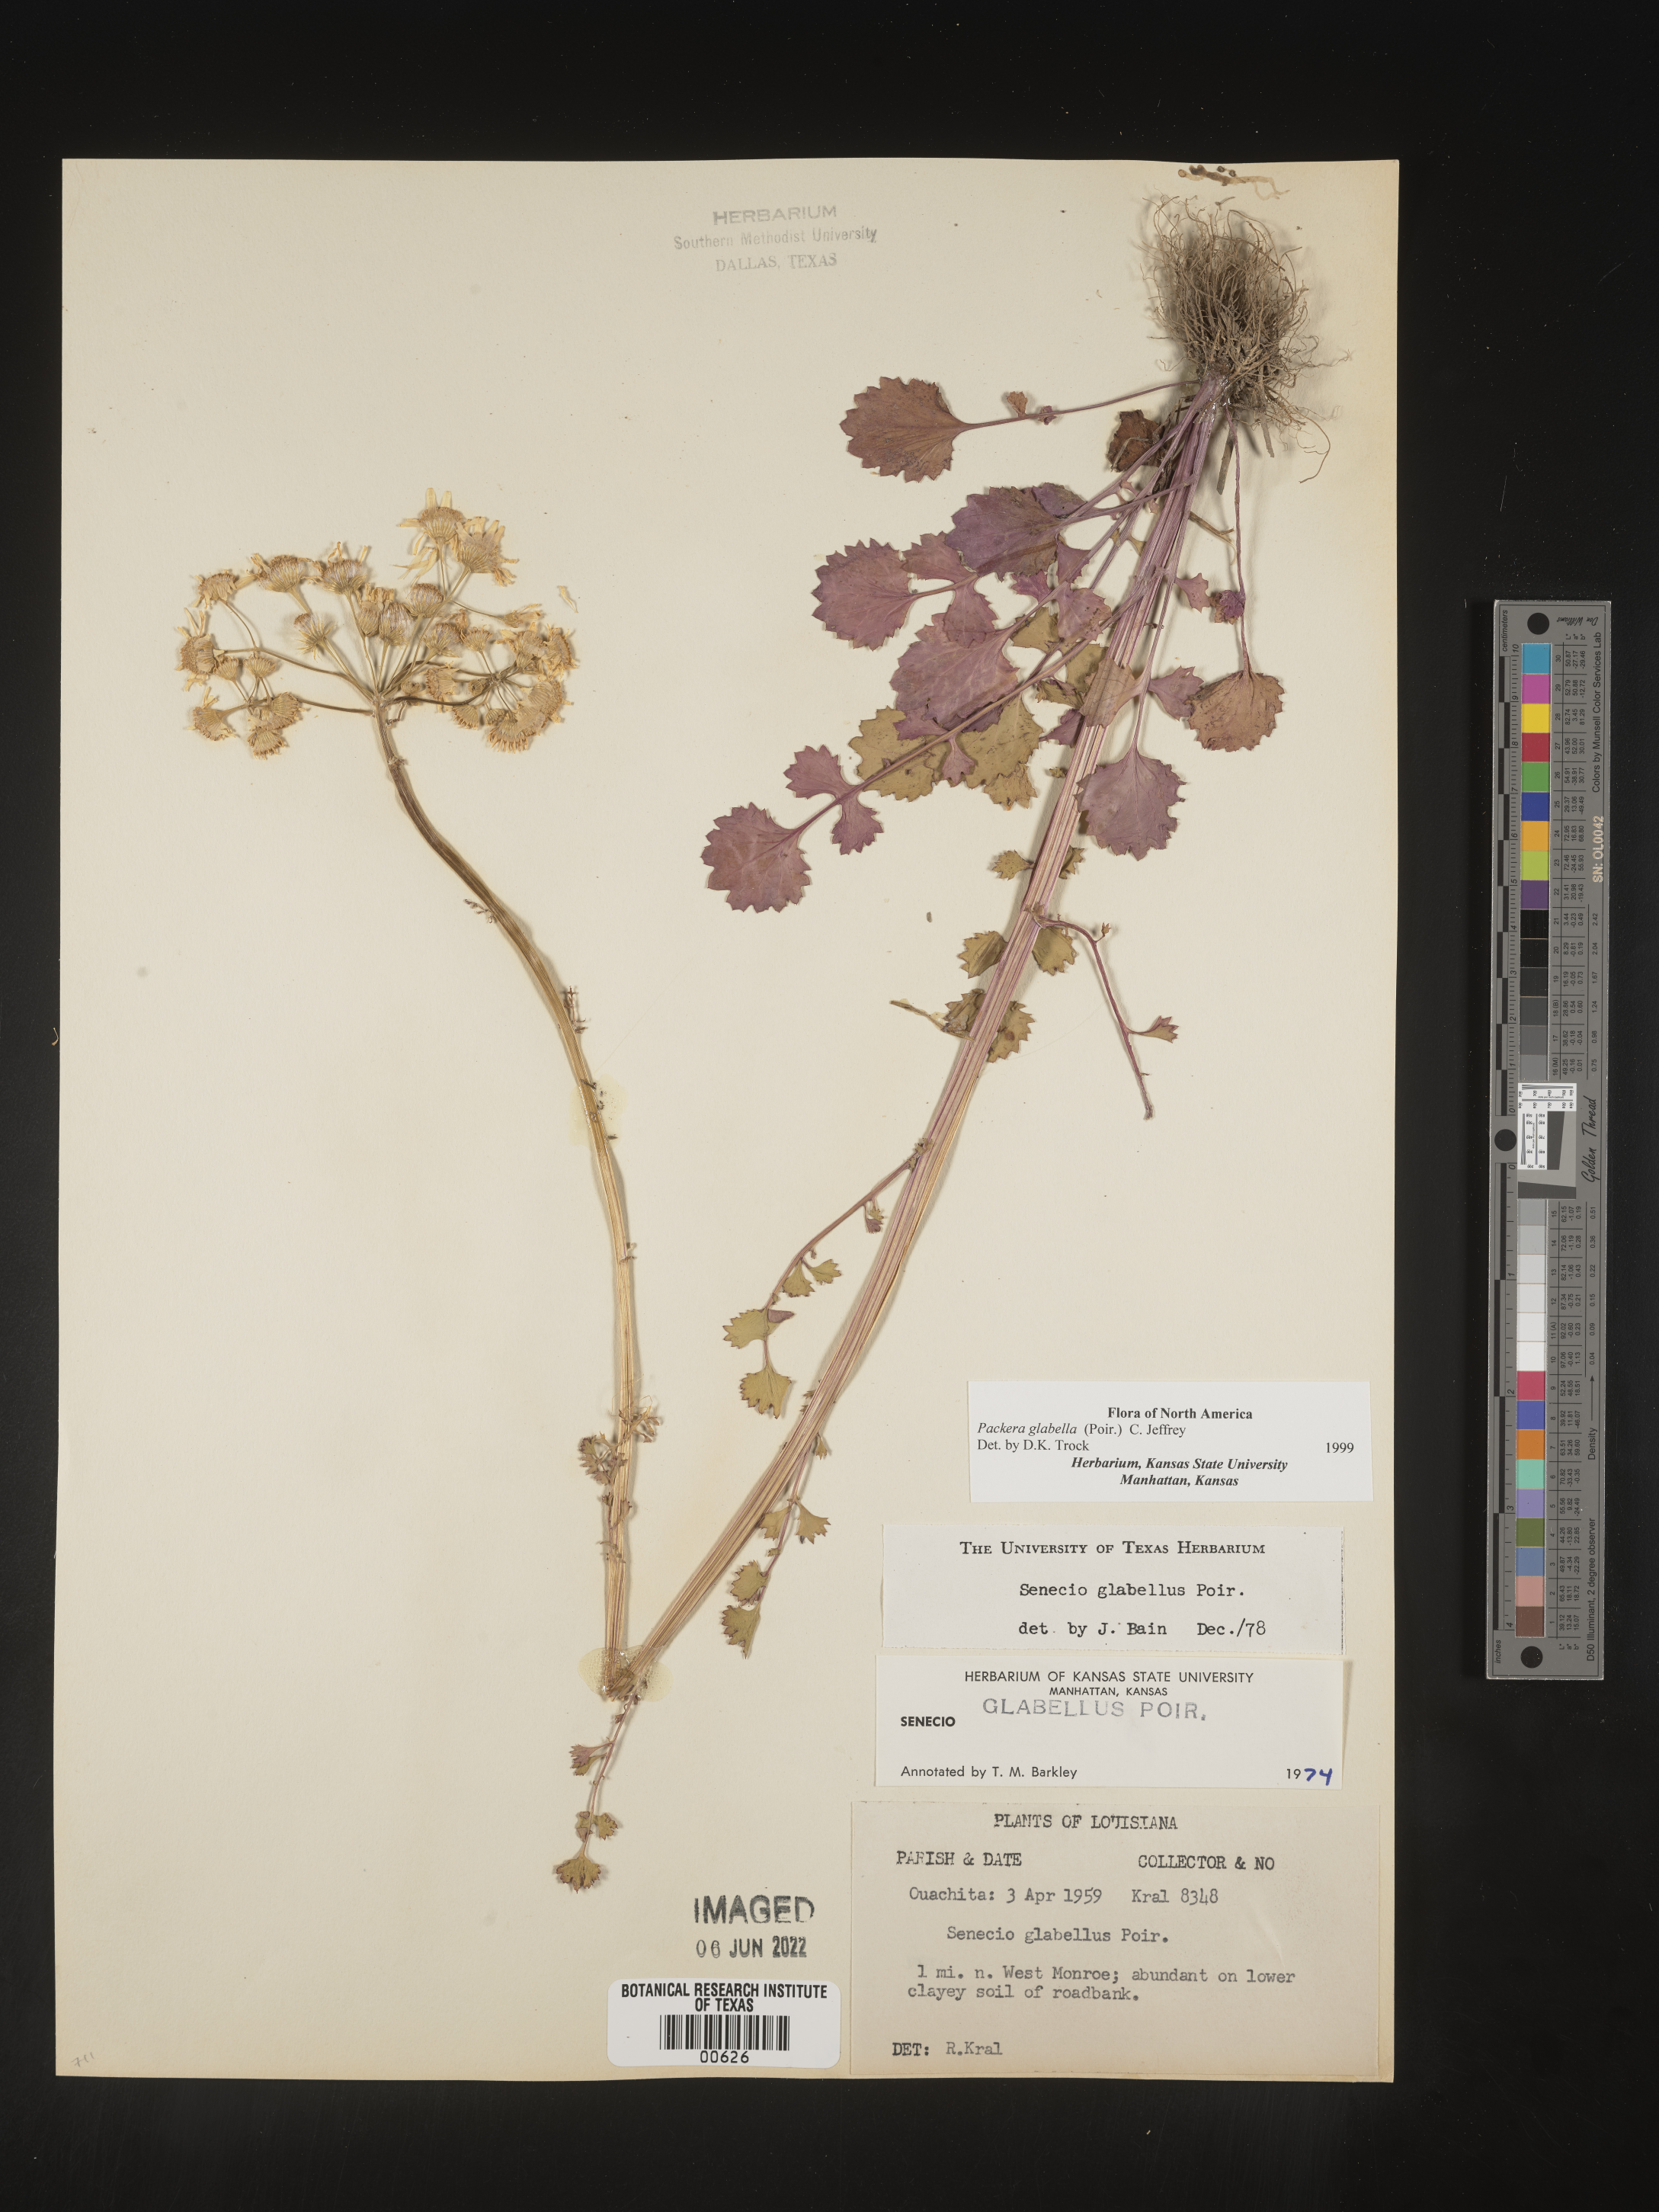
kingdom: Plantae
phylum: Tracheophyta
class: Magnoliopsida
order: Asterales
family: Asteraceae
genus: Packera
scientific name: Packera glabella
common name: Butterweed
